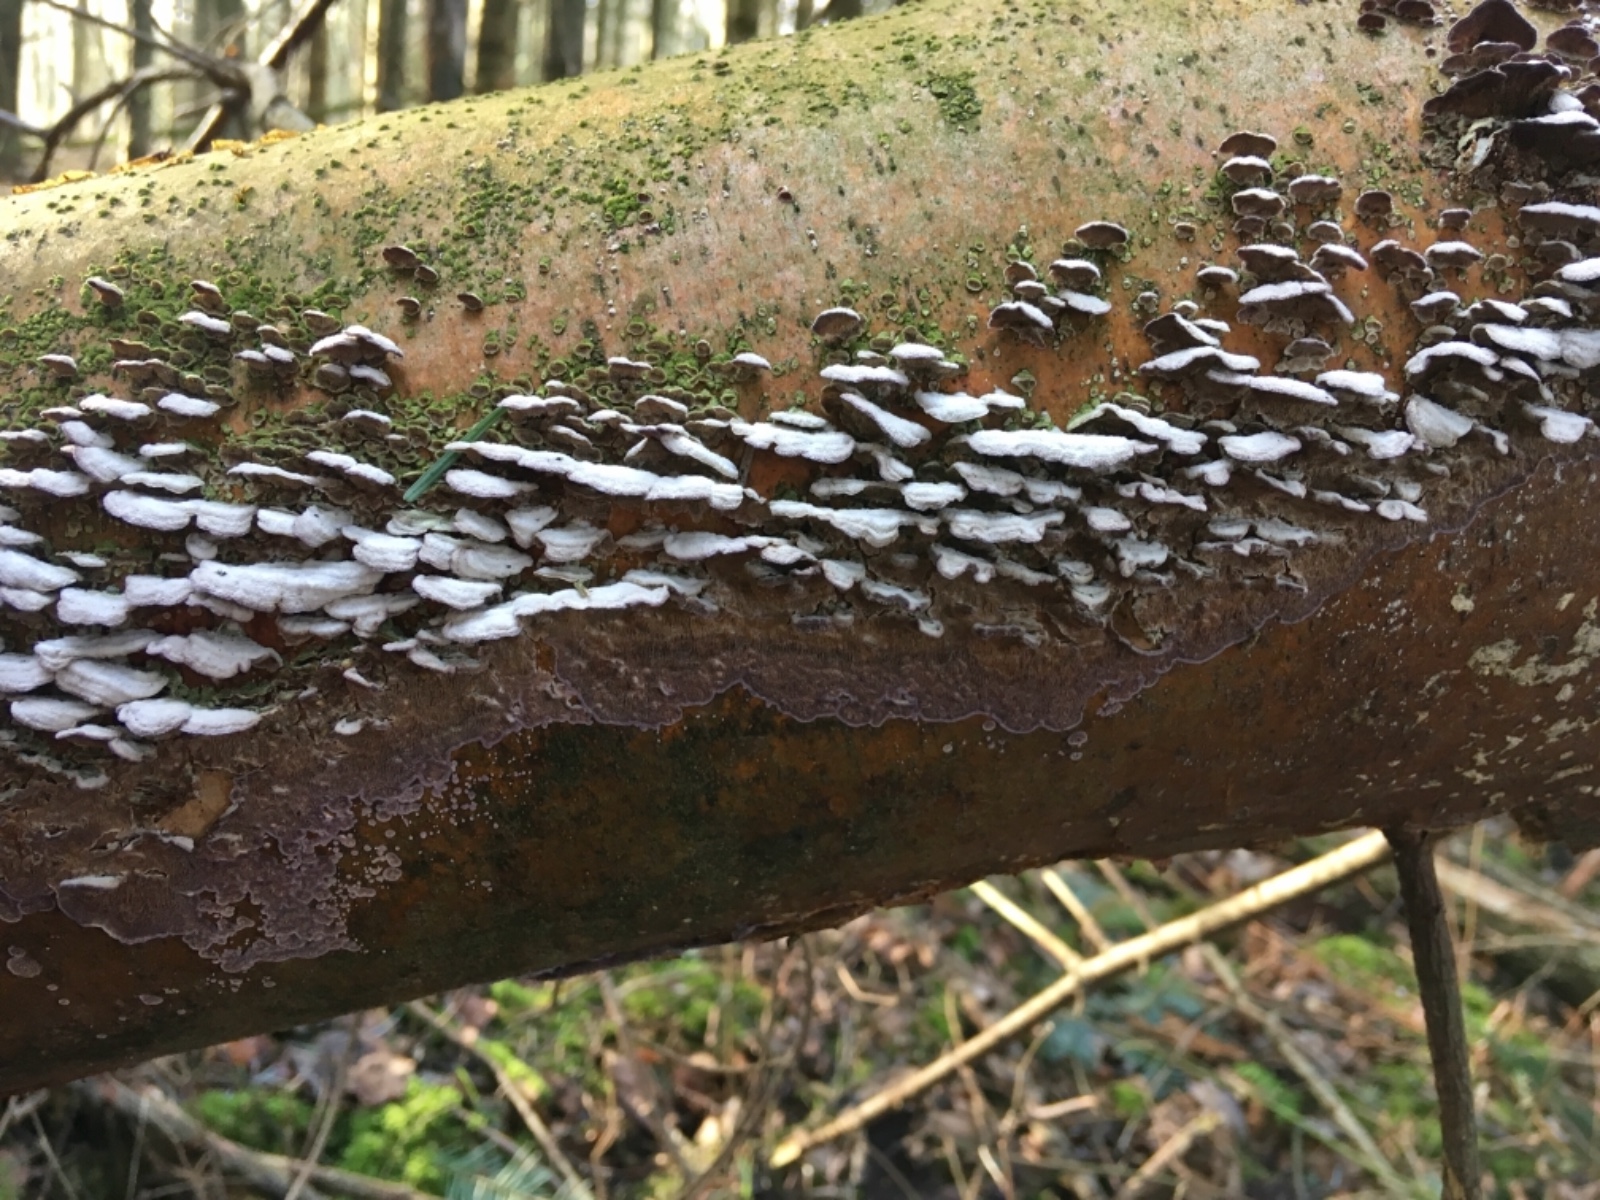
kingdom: Fungi
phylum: Basidiomycota
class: Agaricomycetes
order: Hymenochaetales
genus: Trichaptum
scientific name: Trichaptum abietinum
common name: almindelig violporesvamp
